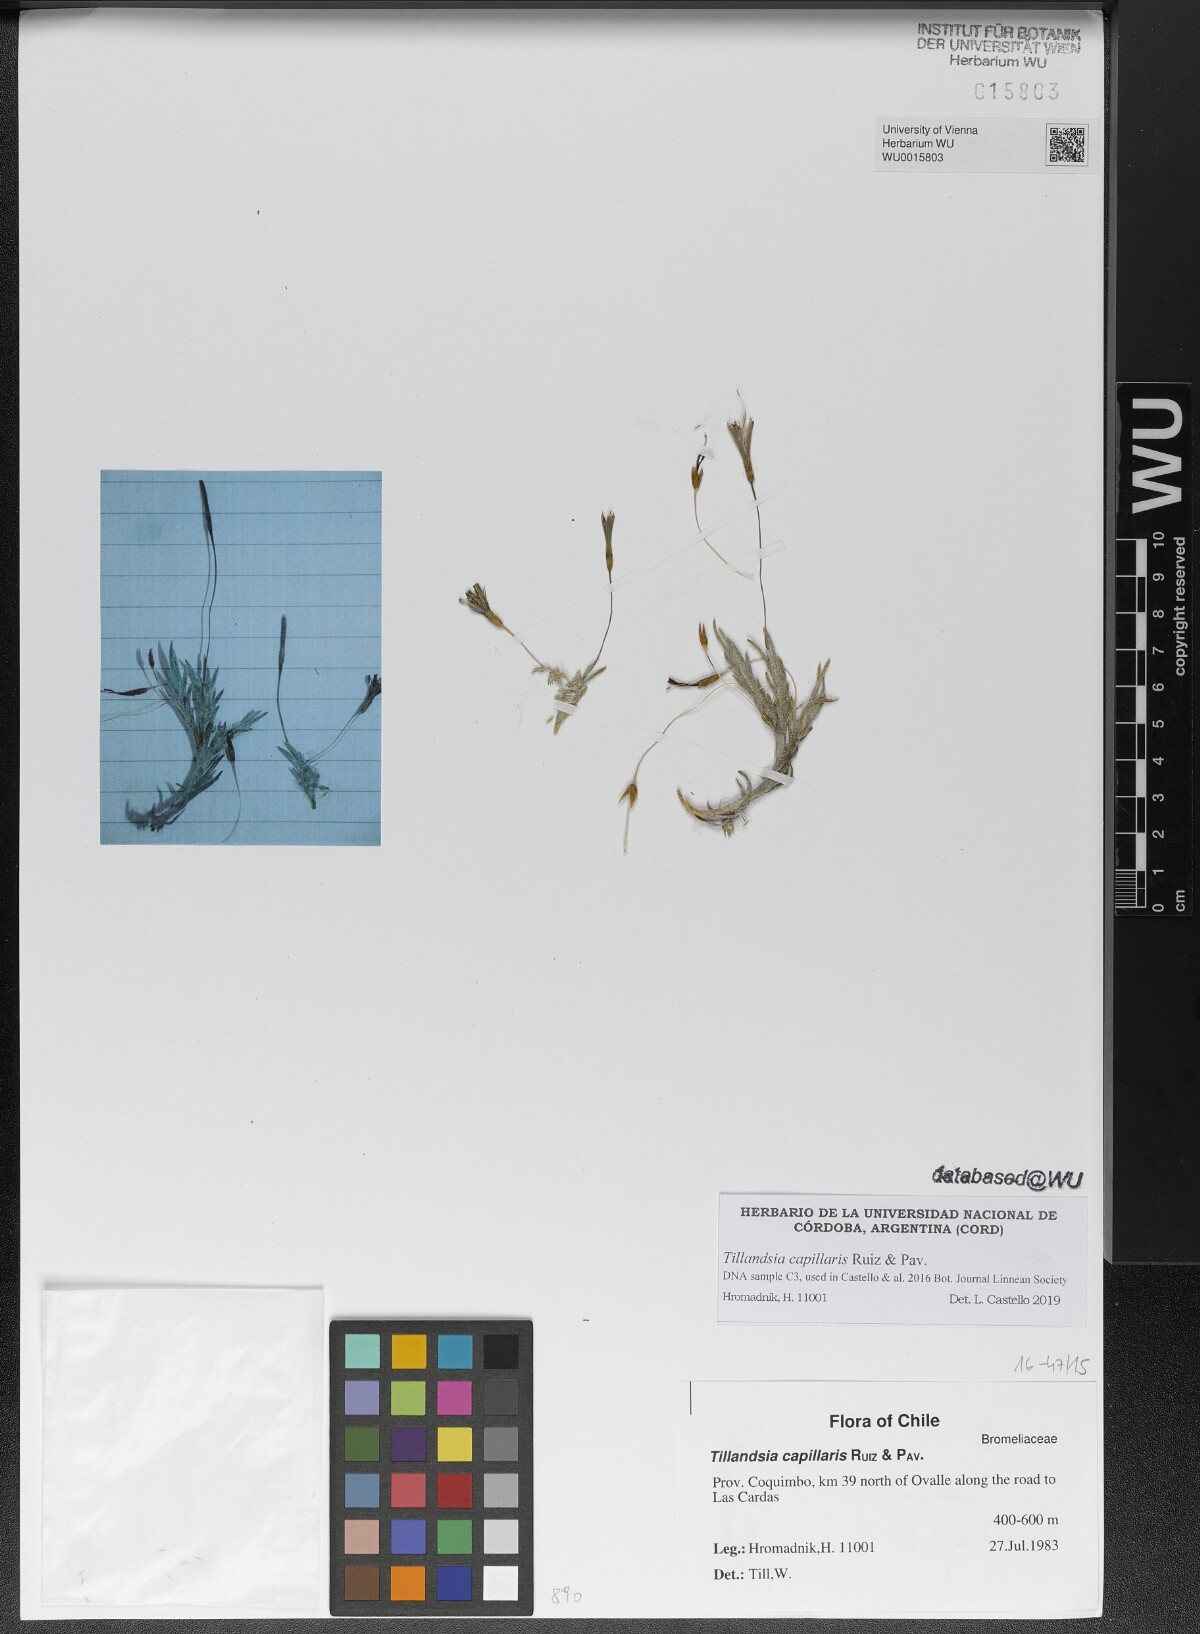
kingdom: Plantae
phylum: Tracheophyta
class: Liliopsida
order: Poales
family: Bromeliaceae
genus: Tillandsia
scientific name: Tillandsia capillaris
